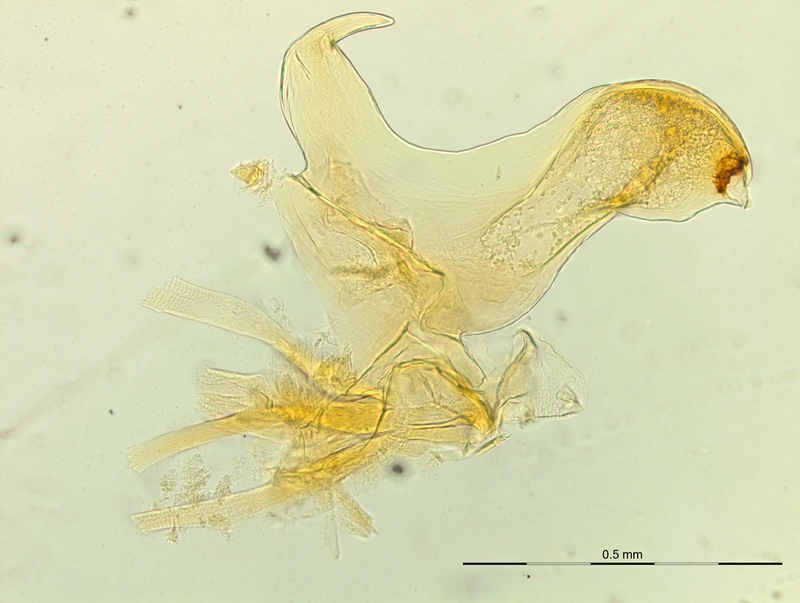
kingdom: Animalia
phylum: Arthropoda
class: Diplopoda
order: Chordeumatida
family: Craspedosomatidae
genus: Macheiriophoron
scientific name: Macheiriophoron alemannicum
